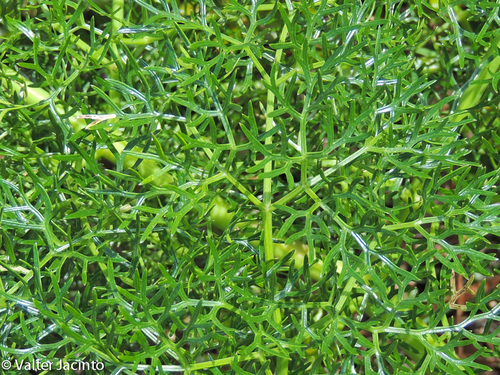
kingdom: Plantae
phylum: Tracheophyta
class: Magnoliopsida
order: Apiales
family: Apiaceae
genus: Ferula
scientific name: Ferula communis
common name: Giant fennel
